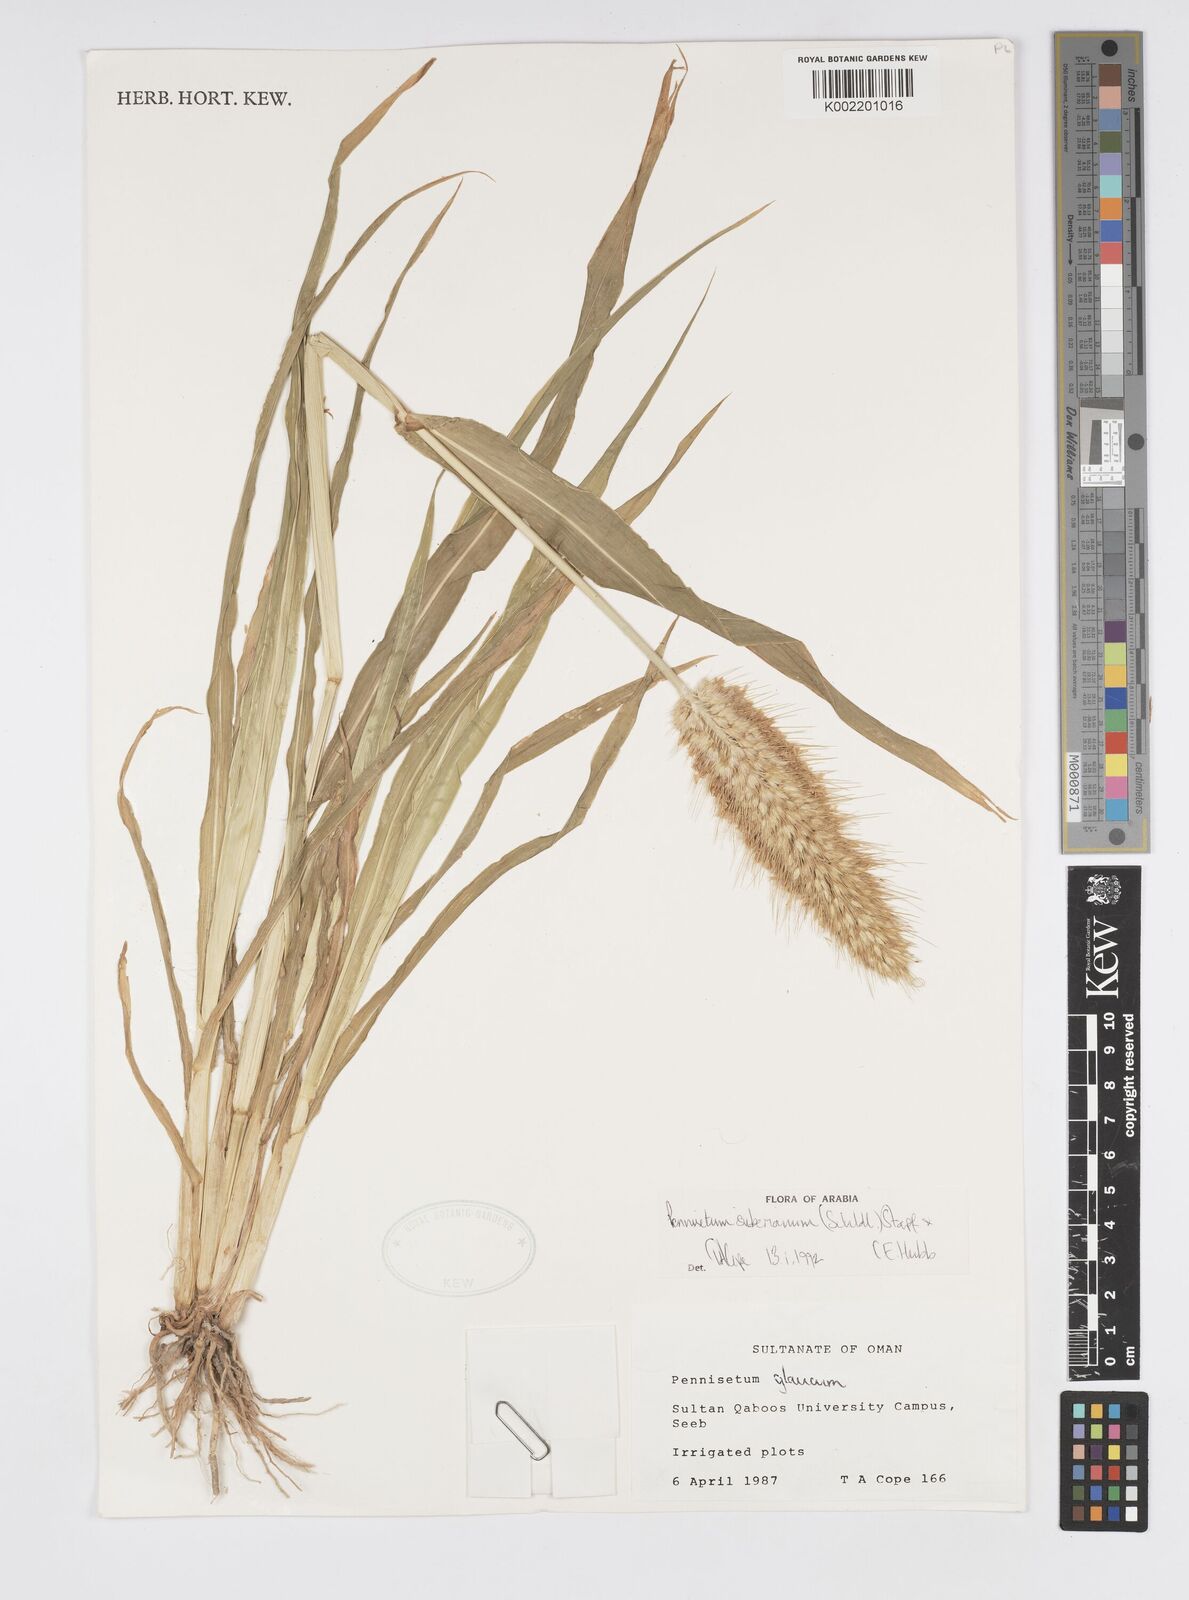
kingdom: Plantae
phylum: Tracheophyta
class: Liliopsida
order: Poales
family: Poaceae
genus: Cenchrus
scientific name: Cenchrus sieberianus
